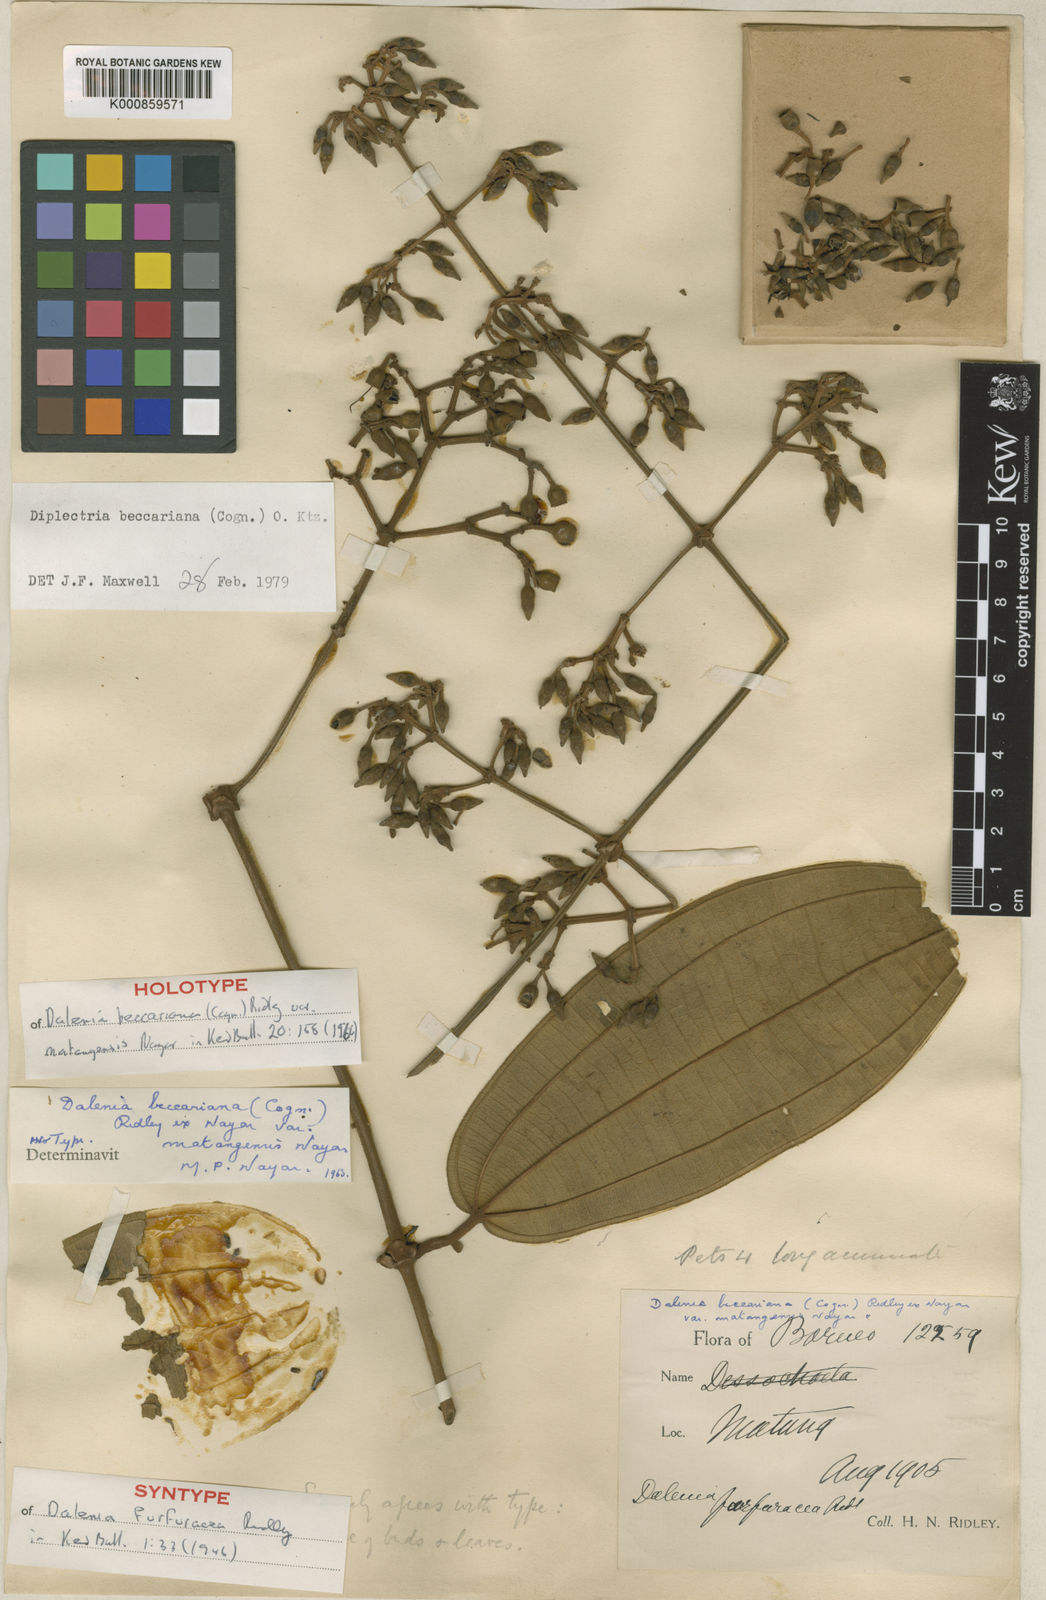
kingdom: Plantae
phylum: Tracheophyta
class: Magnoliopsida
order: Myrtales
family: Melastomataceae
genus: Dalenia
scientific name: Dalenia beccariana
